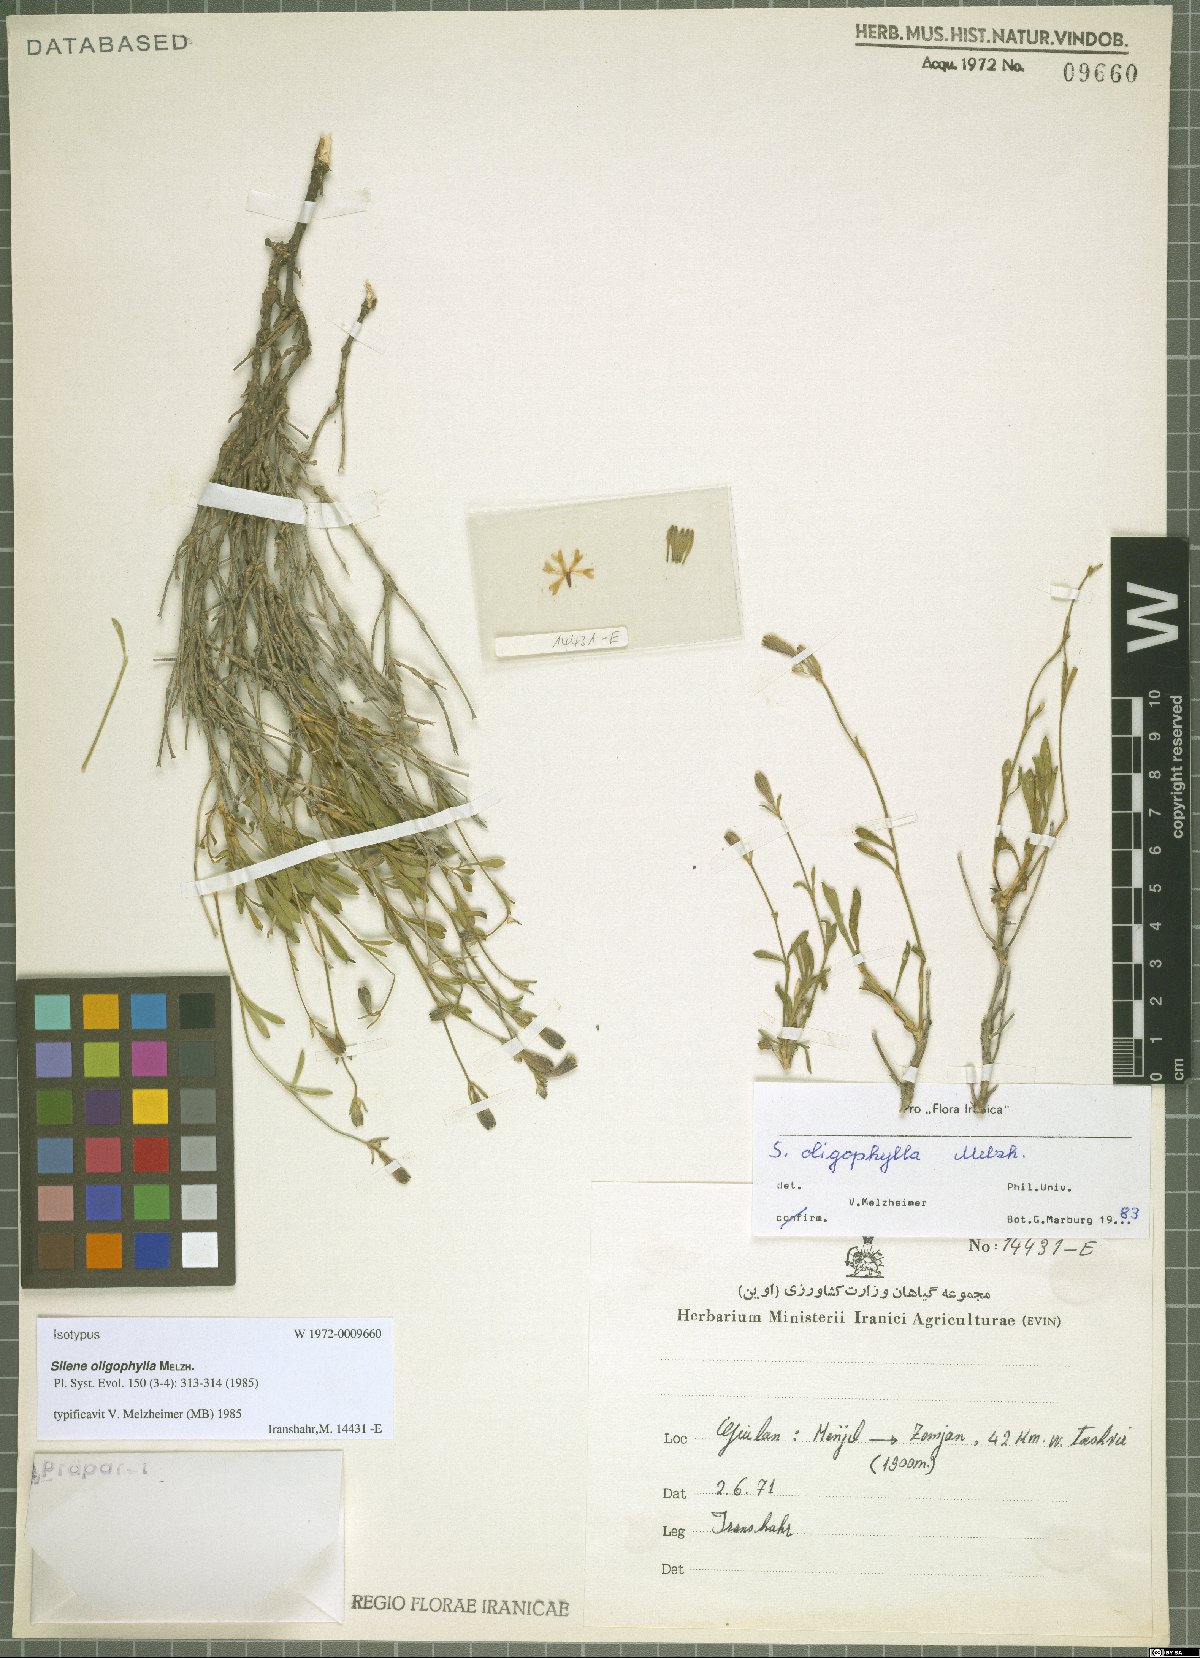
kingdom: Plantae
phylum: Tracheophyta
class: Magnoliopsida
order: Caryophyllales
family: Caryophyllaceae
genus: Silene
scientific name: Silene montbretiana
